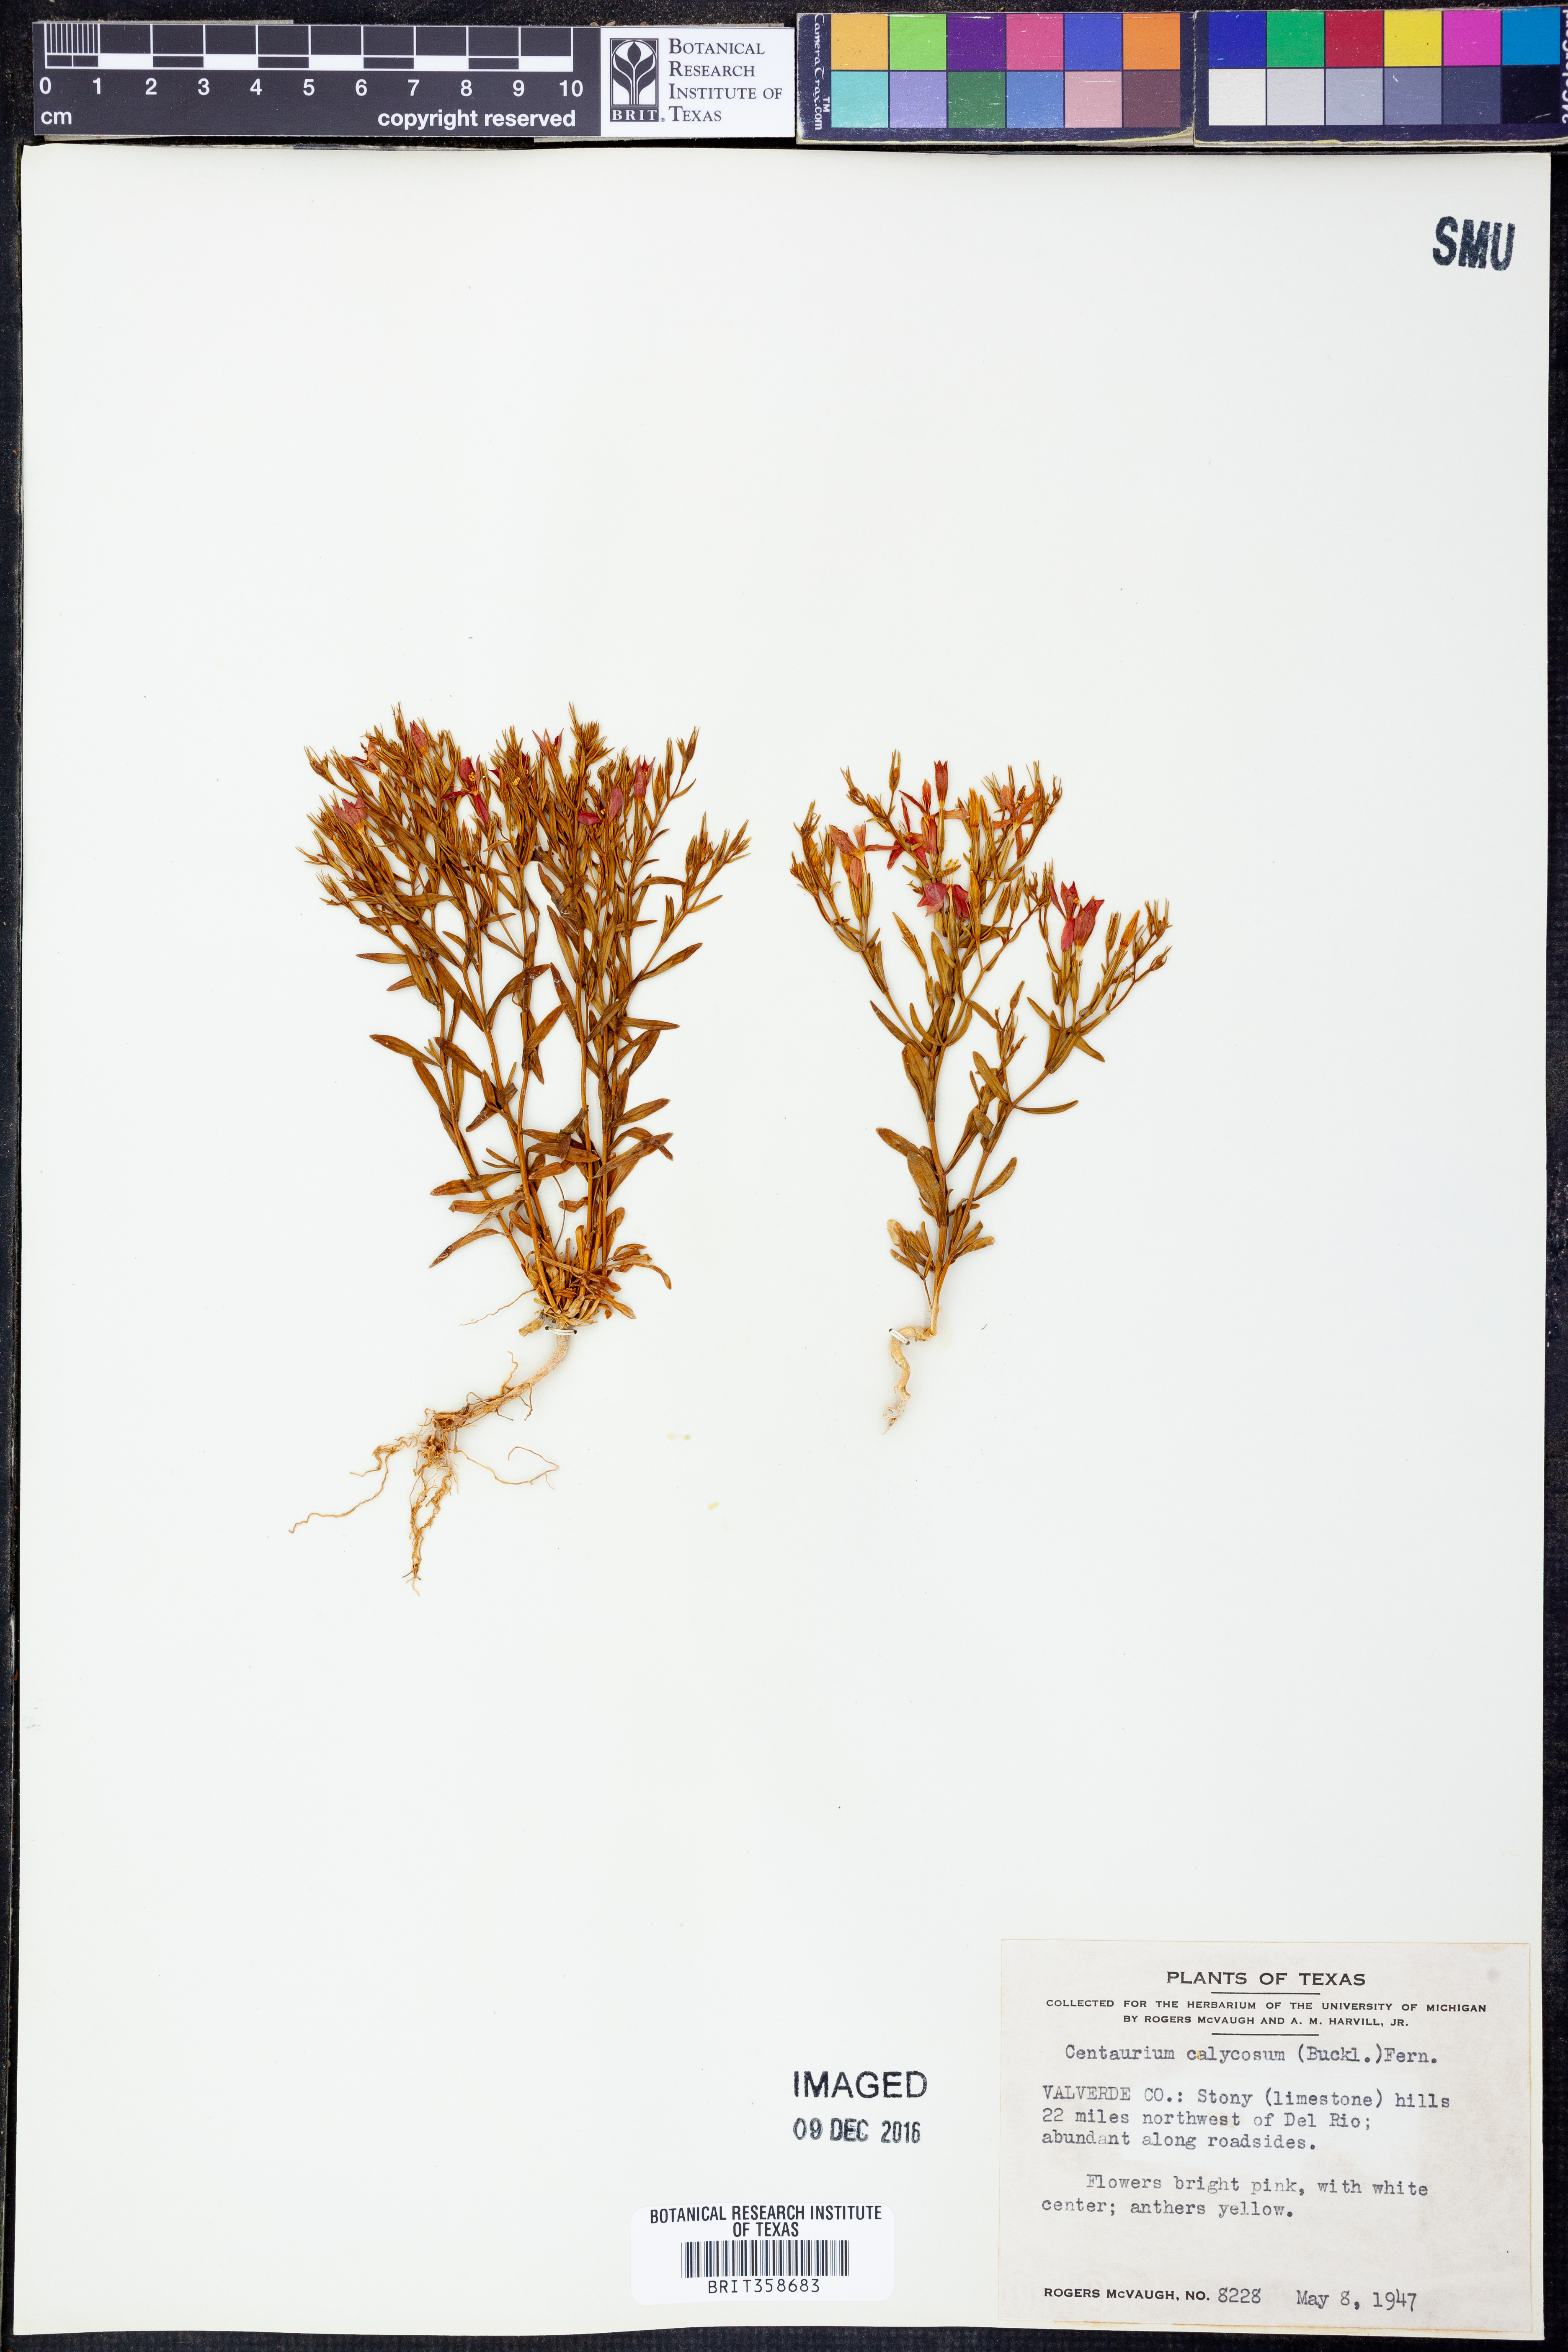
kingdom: Plantae
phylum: Tracheophyta
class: Magnoliopsida
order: Gentianales
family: Gentianaceae
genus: Zeltnera
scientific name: Zeltnera calycosa
